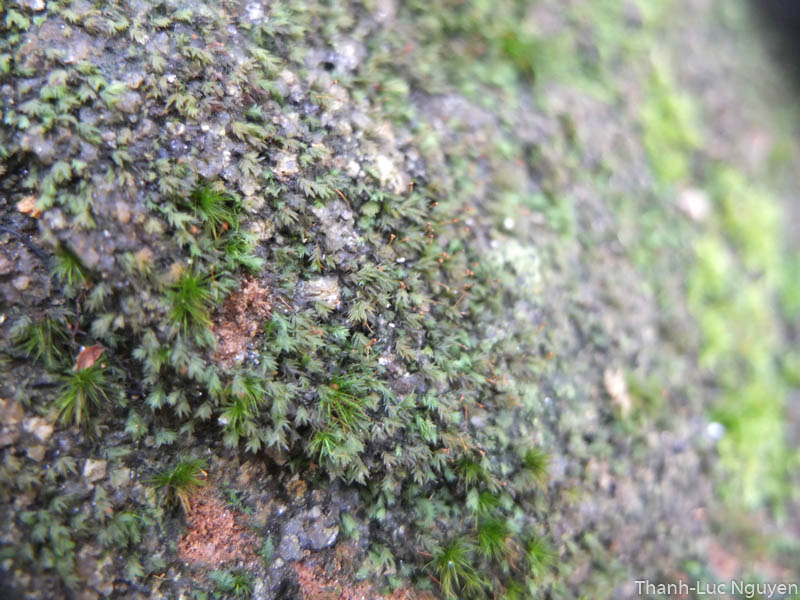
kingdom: Plantae
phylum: Bryophyta
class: Bryopsida
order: Dicranales
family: Fissidentaceae
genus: Fissidens
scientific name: Fissidens
